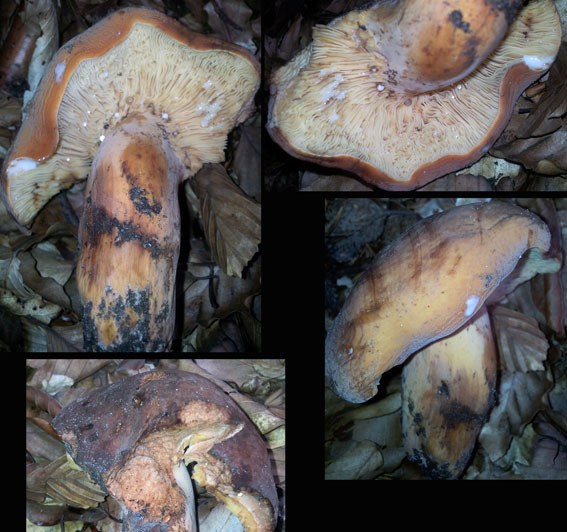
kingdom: Fungi
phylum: Basidiomycota
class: Agaricomycetes
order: Russulales
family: Russulaceae
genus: Lactifluus
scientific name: Lactifluus volemus
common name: spiselig mælkehat
